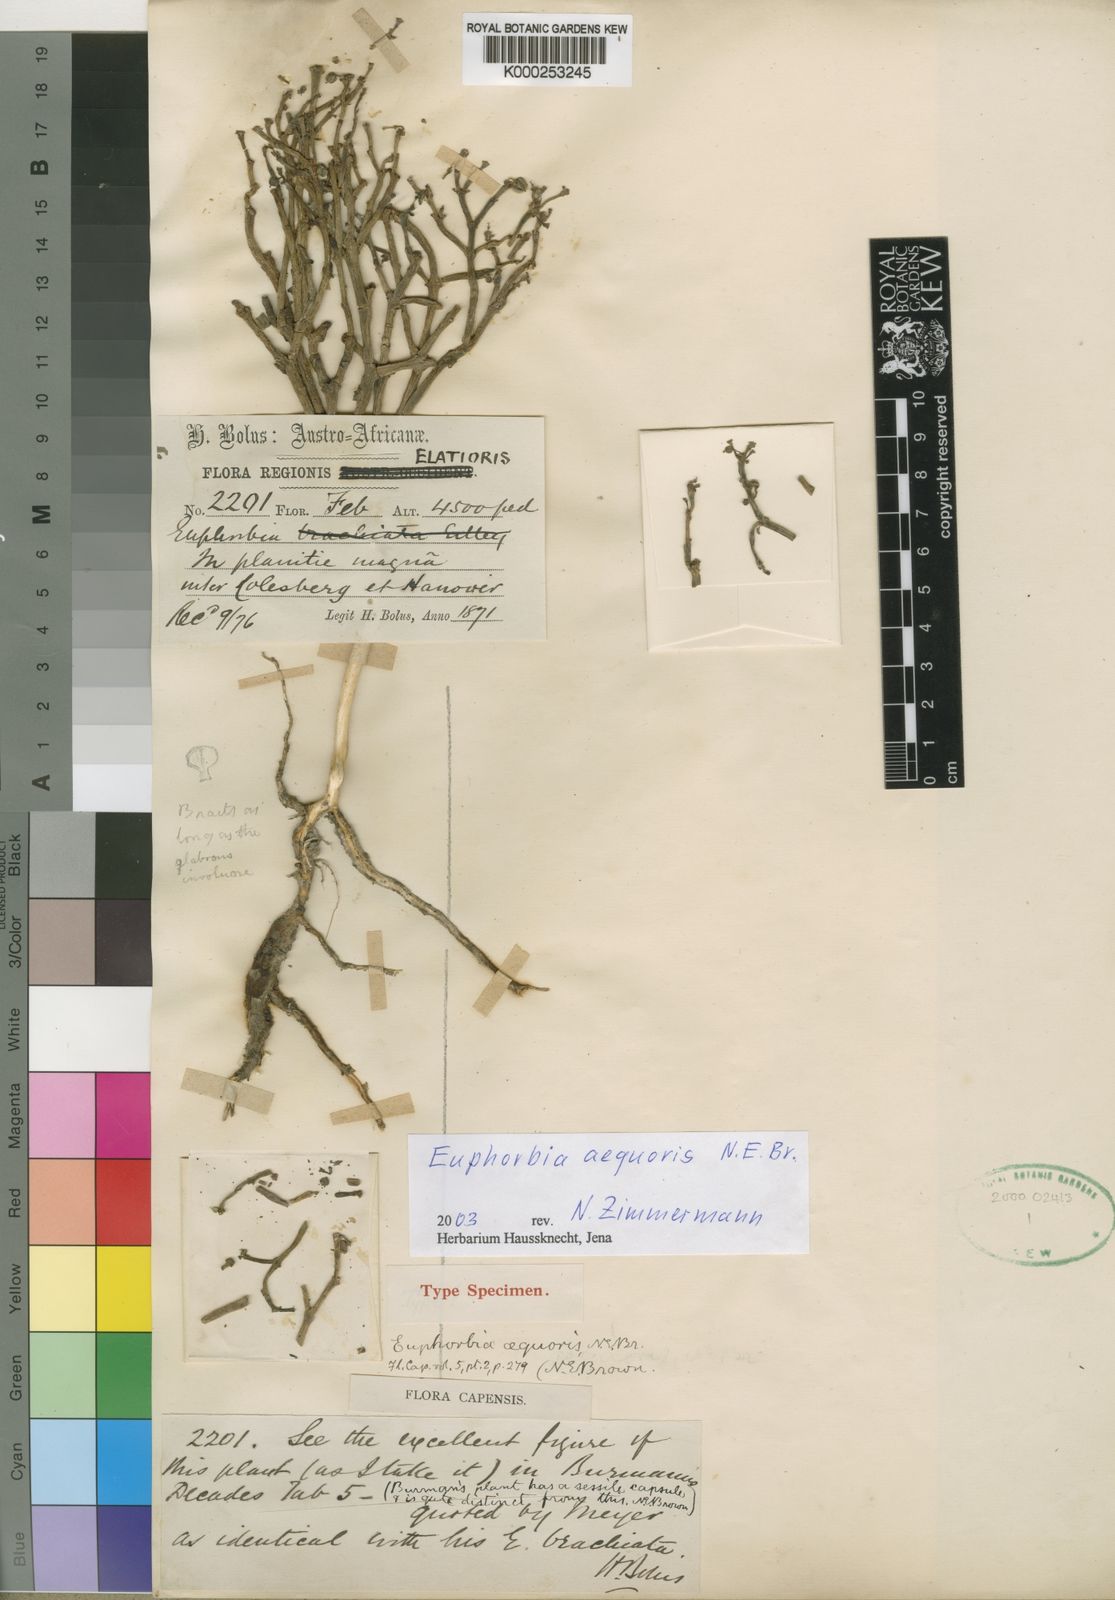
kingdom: Plantae
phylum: Tracheophyta
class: Magnoliopsida
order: Malpighiales
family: Euphorbiaceae
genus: Euphorbia
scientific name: Euphorbia juttae
